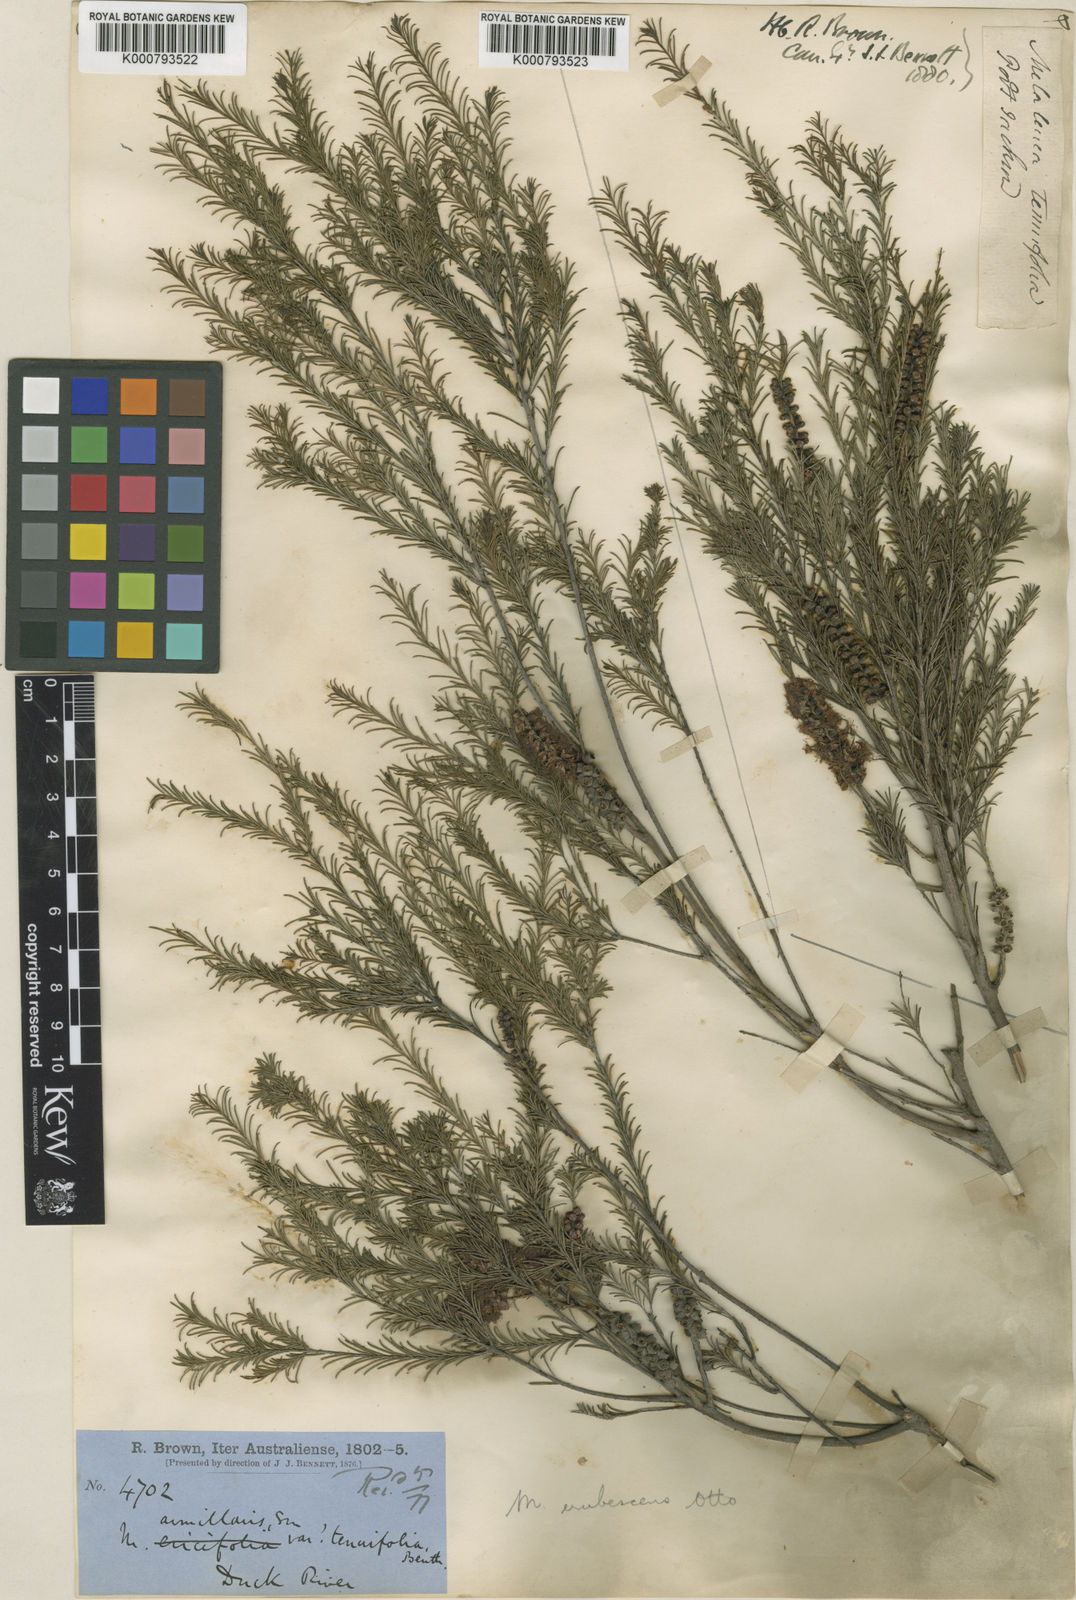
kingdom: Plantae
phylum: Tracheophyta
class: Magnoliopsida
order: Myrtales
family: Myrtaceae
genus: Melaleuca
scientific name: Melaleuca diosmatifolia
